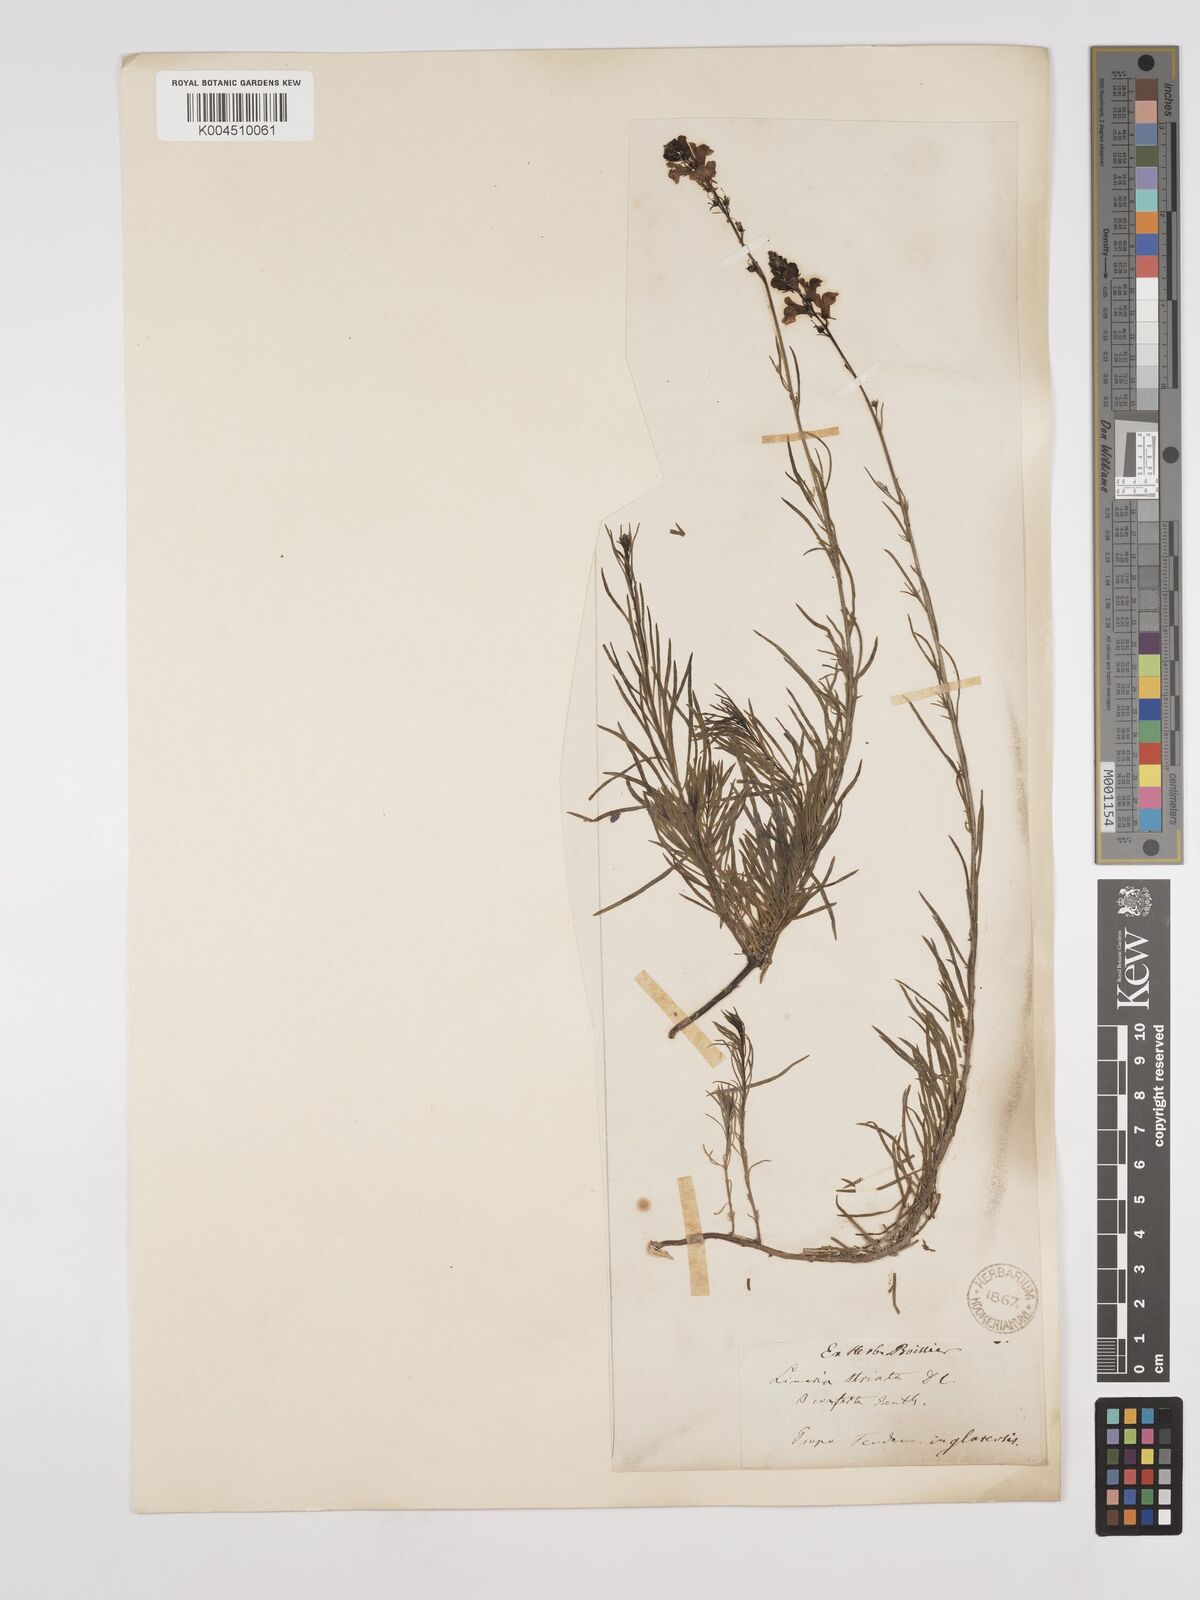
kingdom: Plantae
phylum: Tracheophyta
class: Magnoliopsida
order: Lamiales
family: Plantaginaceae
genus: Linaria
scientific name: Linaria repens
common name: Pale toadflax
